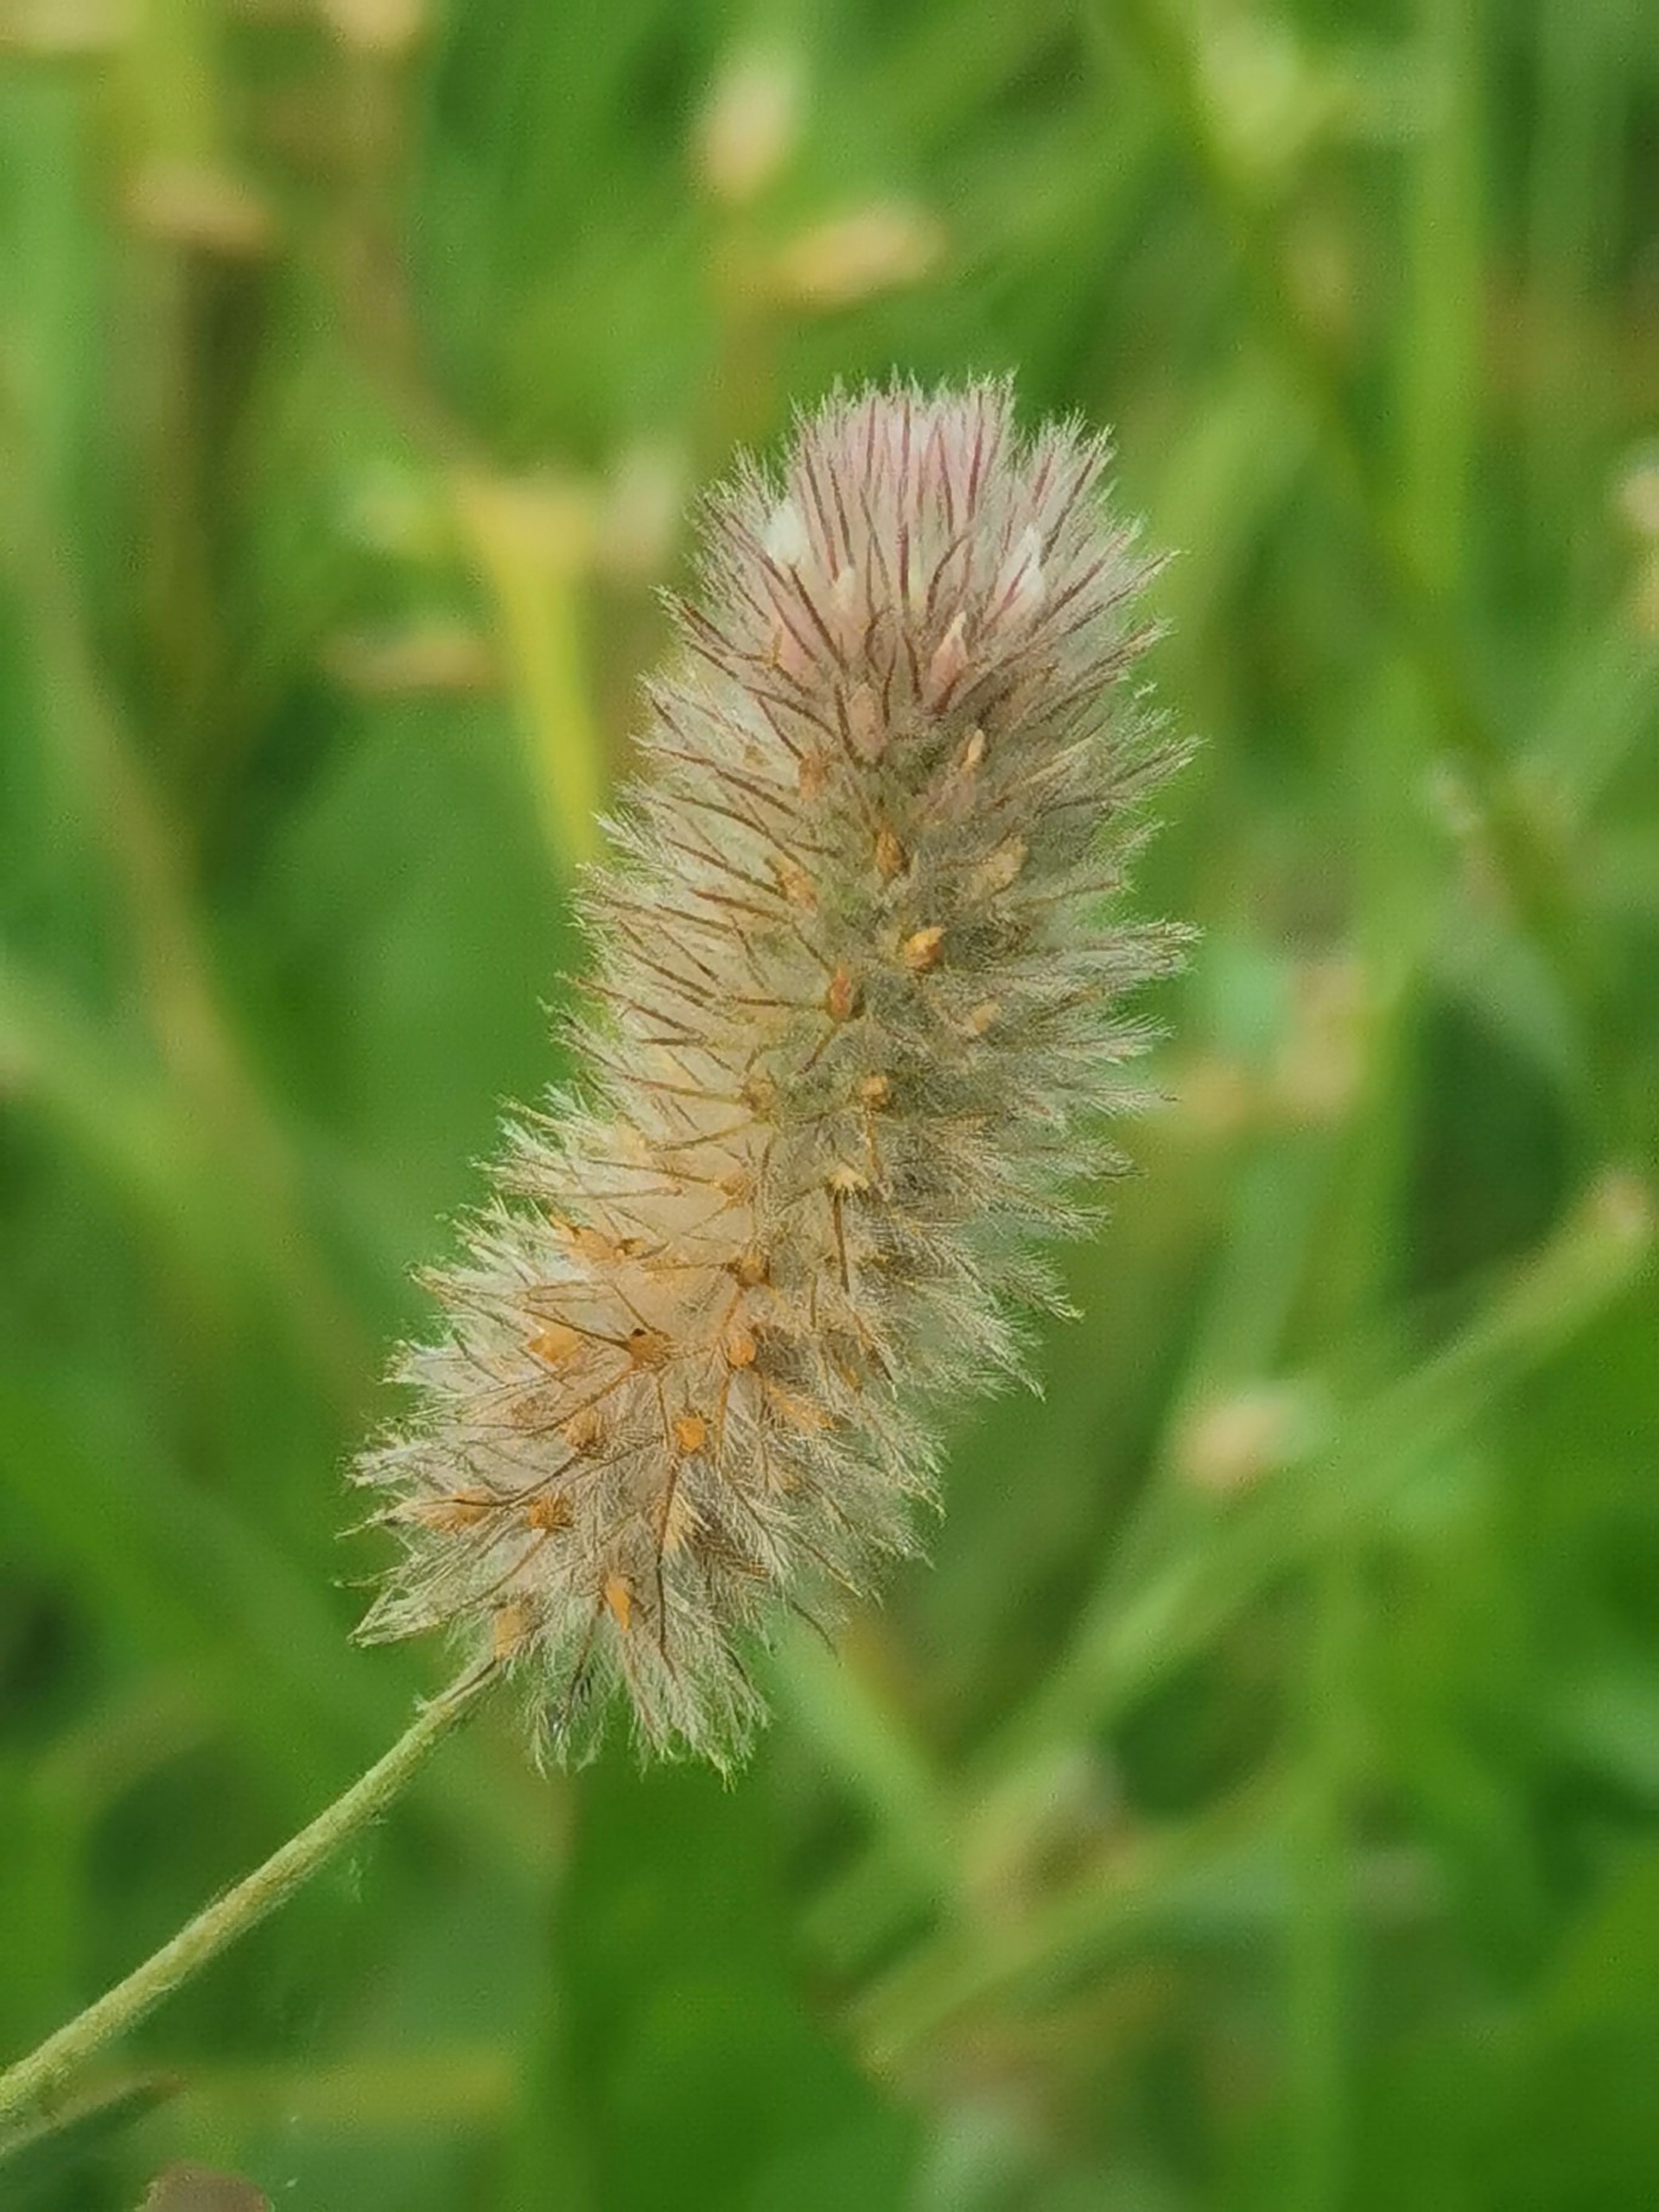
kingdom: Plantae
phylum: Tracheophyta
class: Magnoliopsida
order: Fabales
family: Fabaceae
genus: Trifolium
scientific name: Trifolium arvense
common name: Hare-kløver
